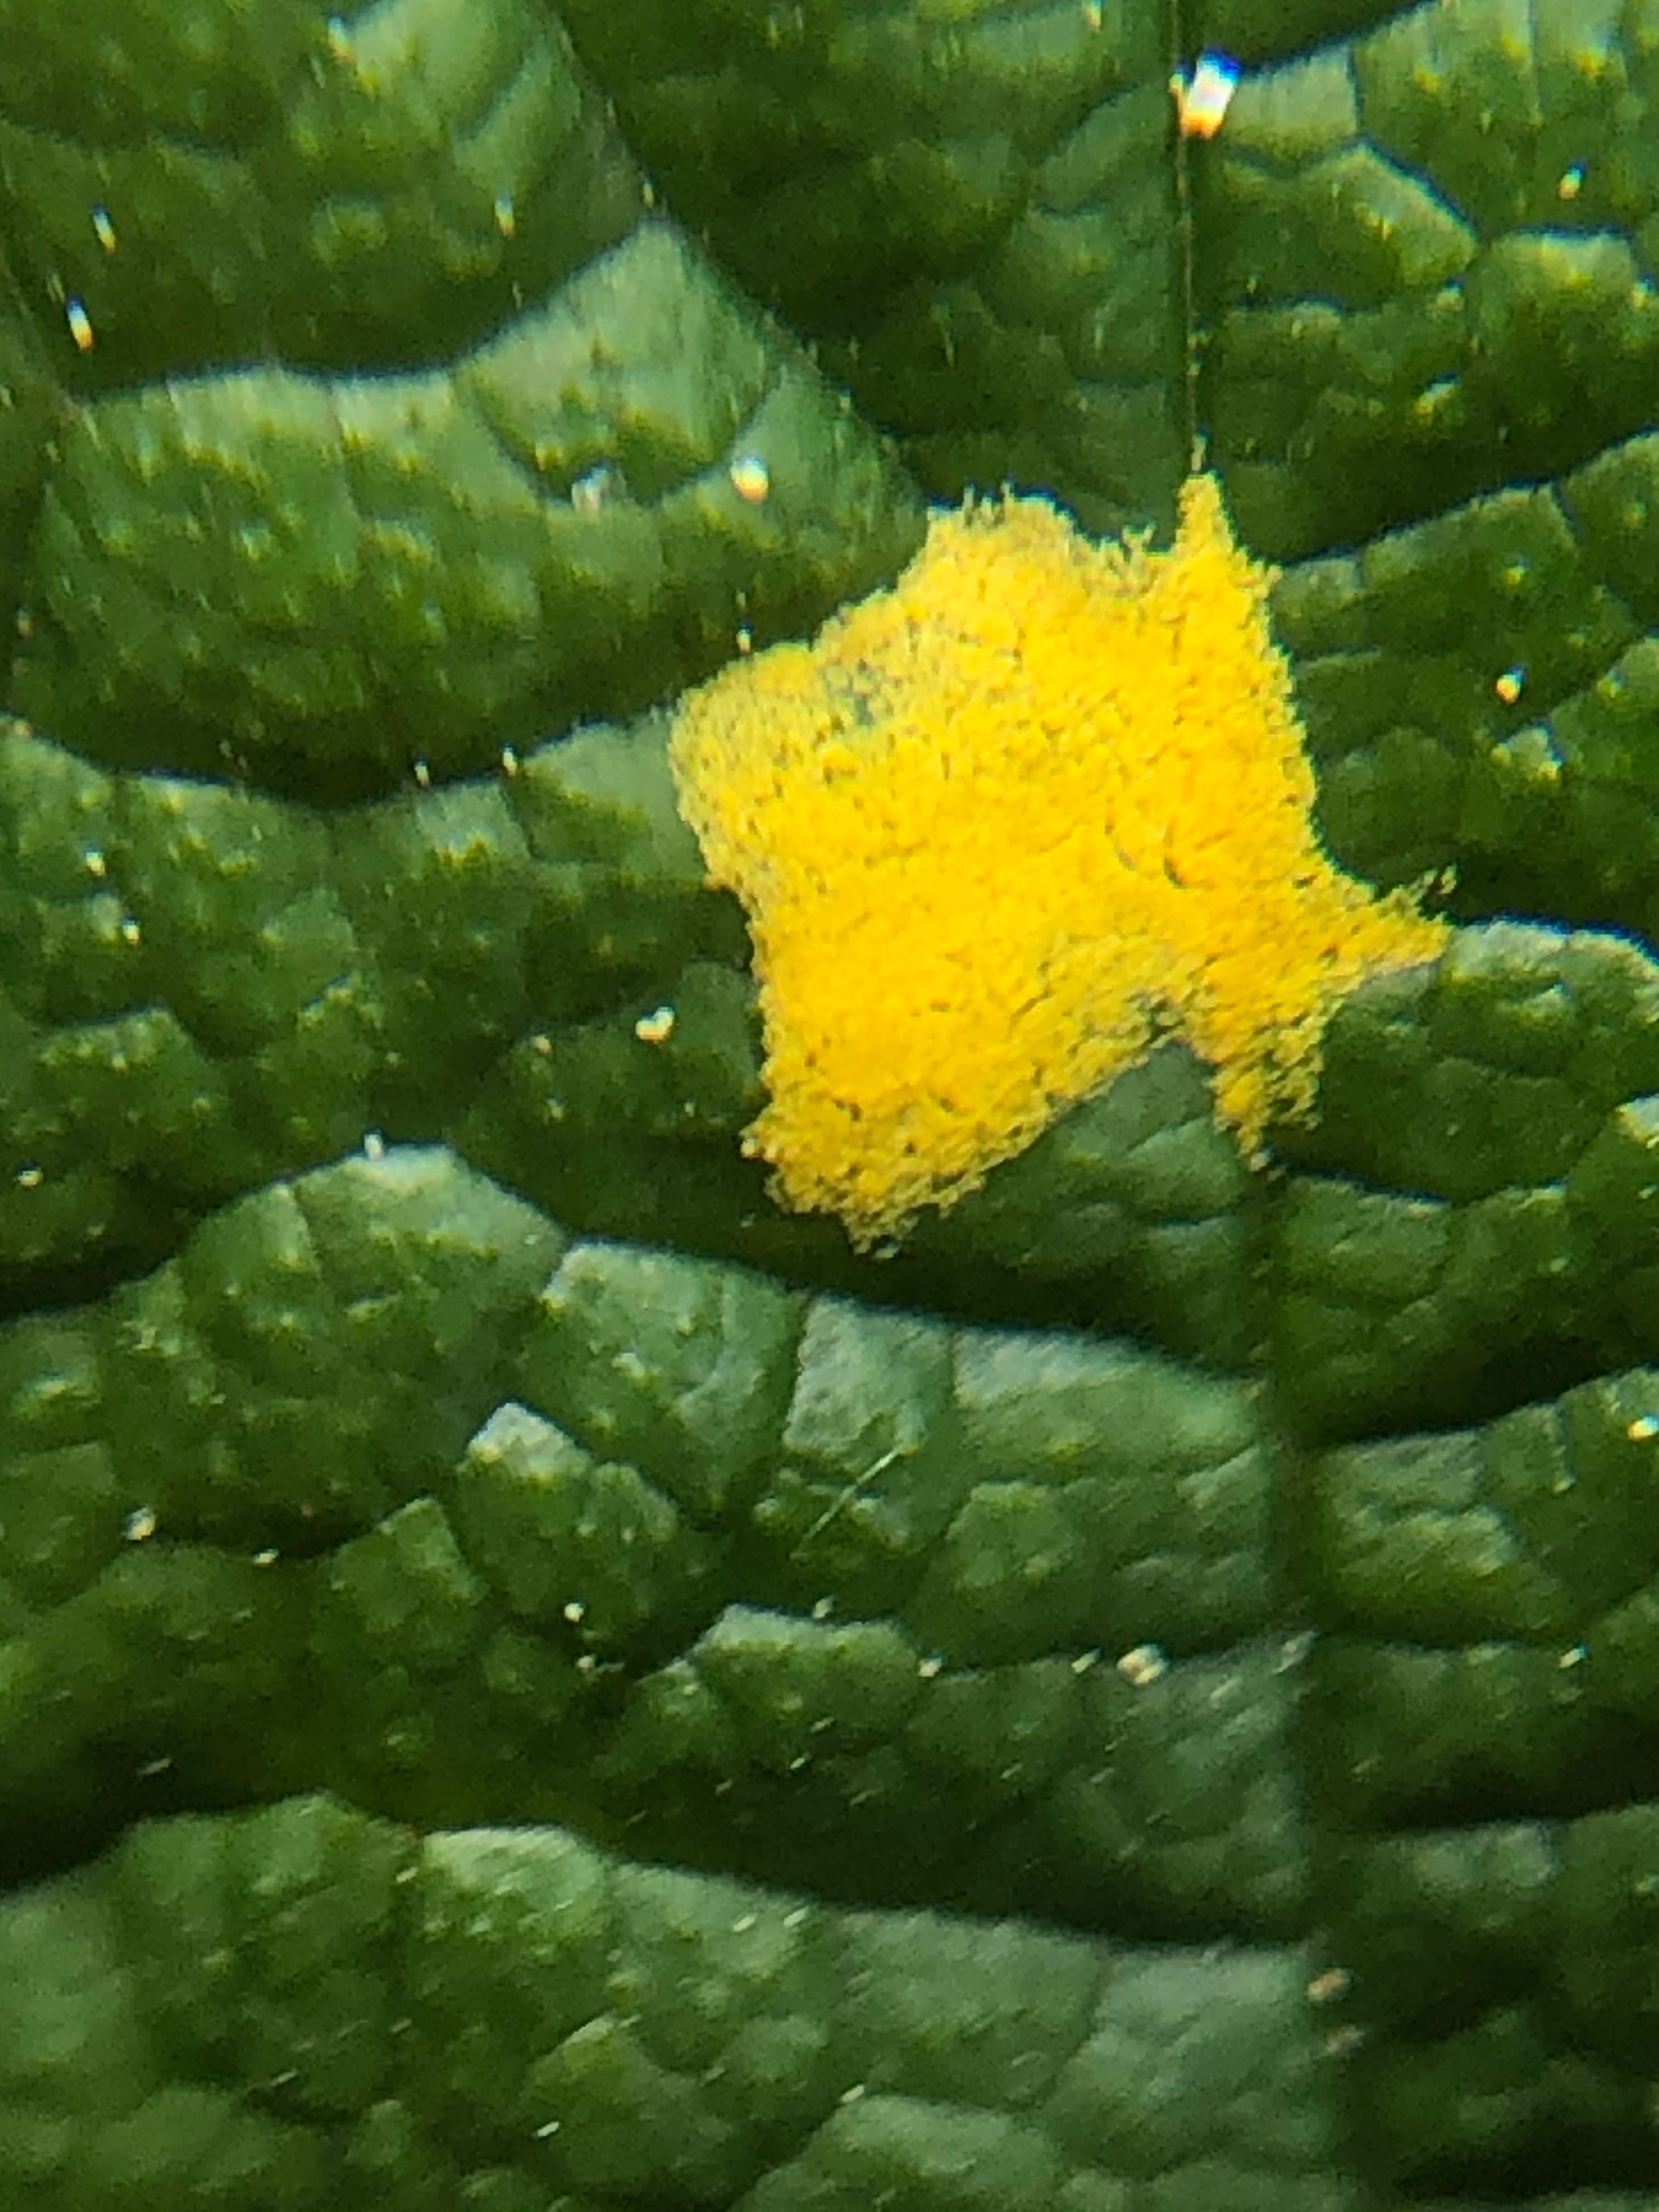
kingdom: Fungi
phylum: Basidiomycota
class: Pucciniomycetes
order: Pucciniales
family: Raveneliaceae
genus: Triphragmium
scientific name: Triphragmium ulmariae
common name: almindelig mjødurtrust
